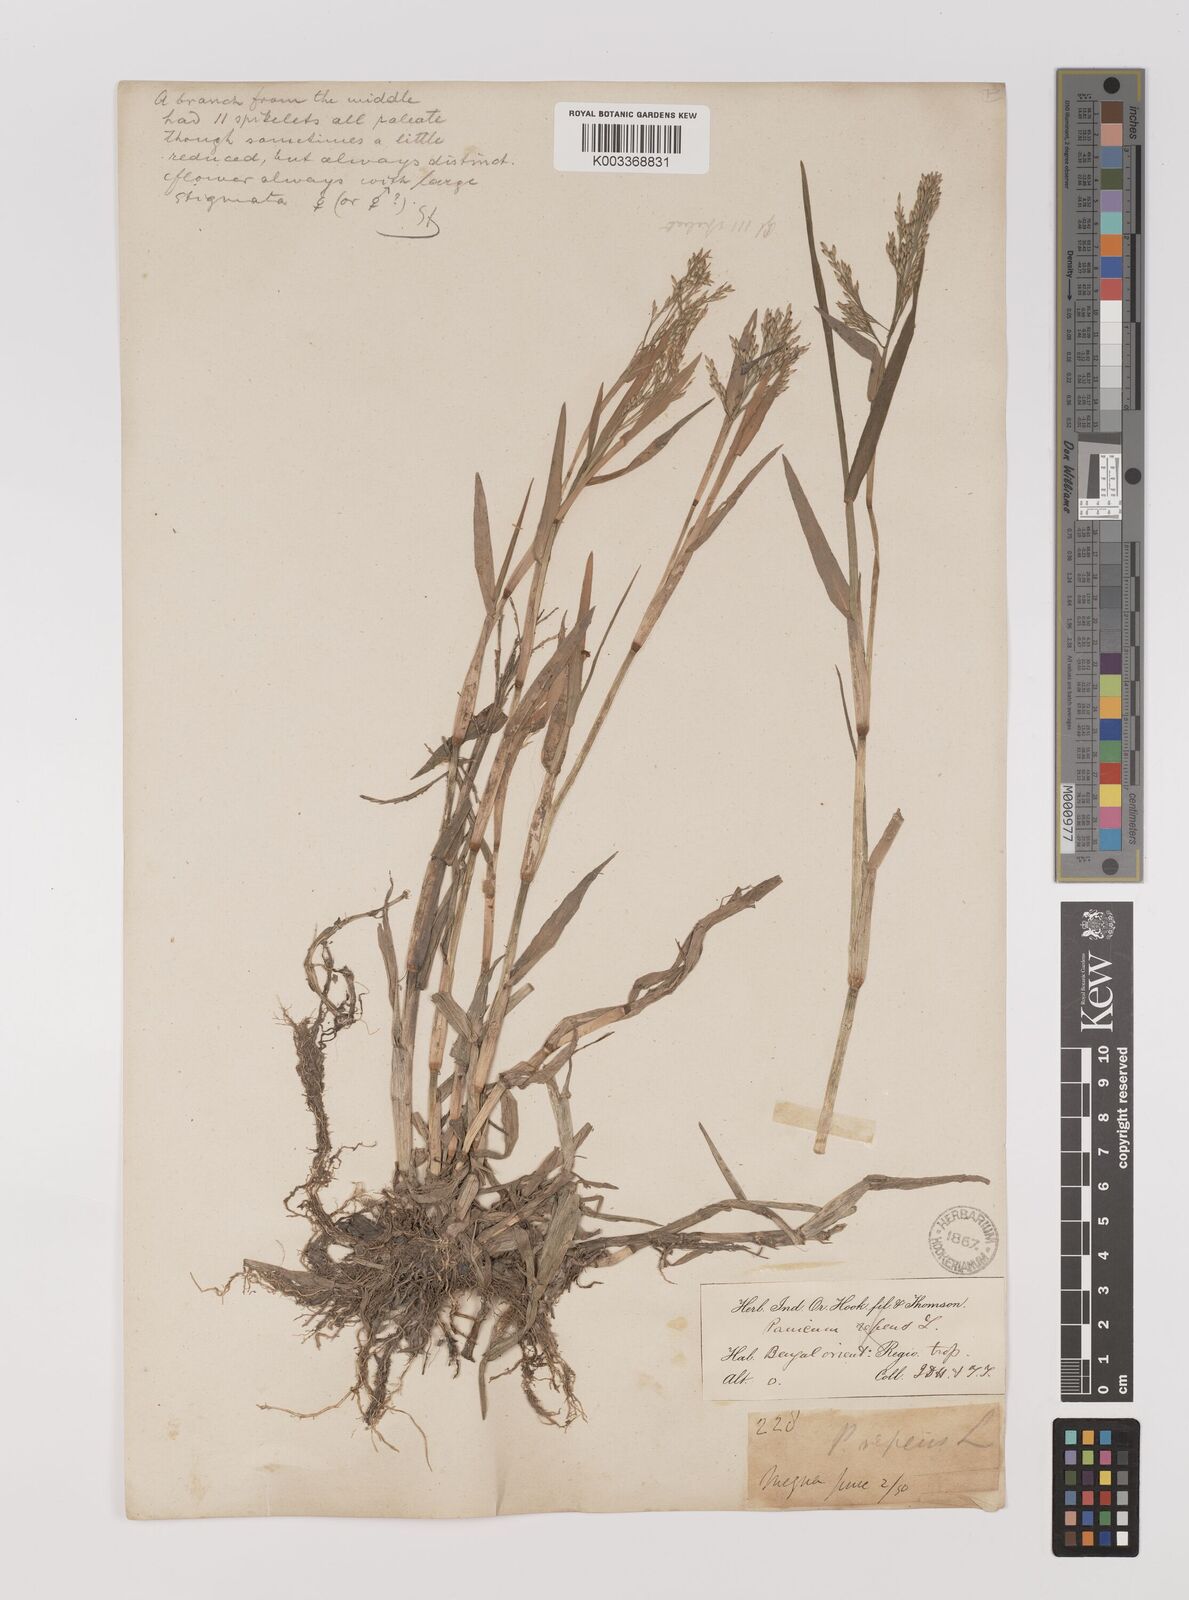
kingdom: Plantae
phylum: Tracheophyta
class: Liliopsida
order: Poales
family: Poaceae
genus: Louisiella
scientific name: Louisiella paludosa
